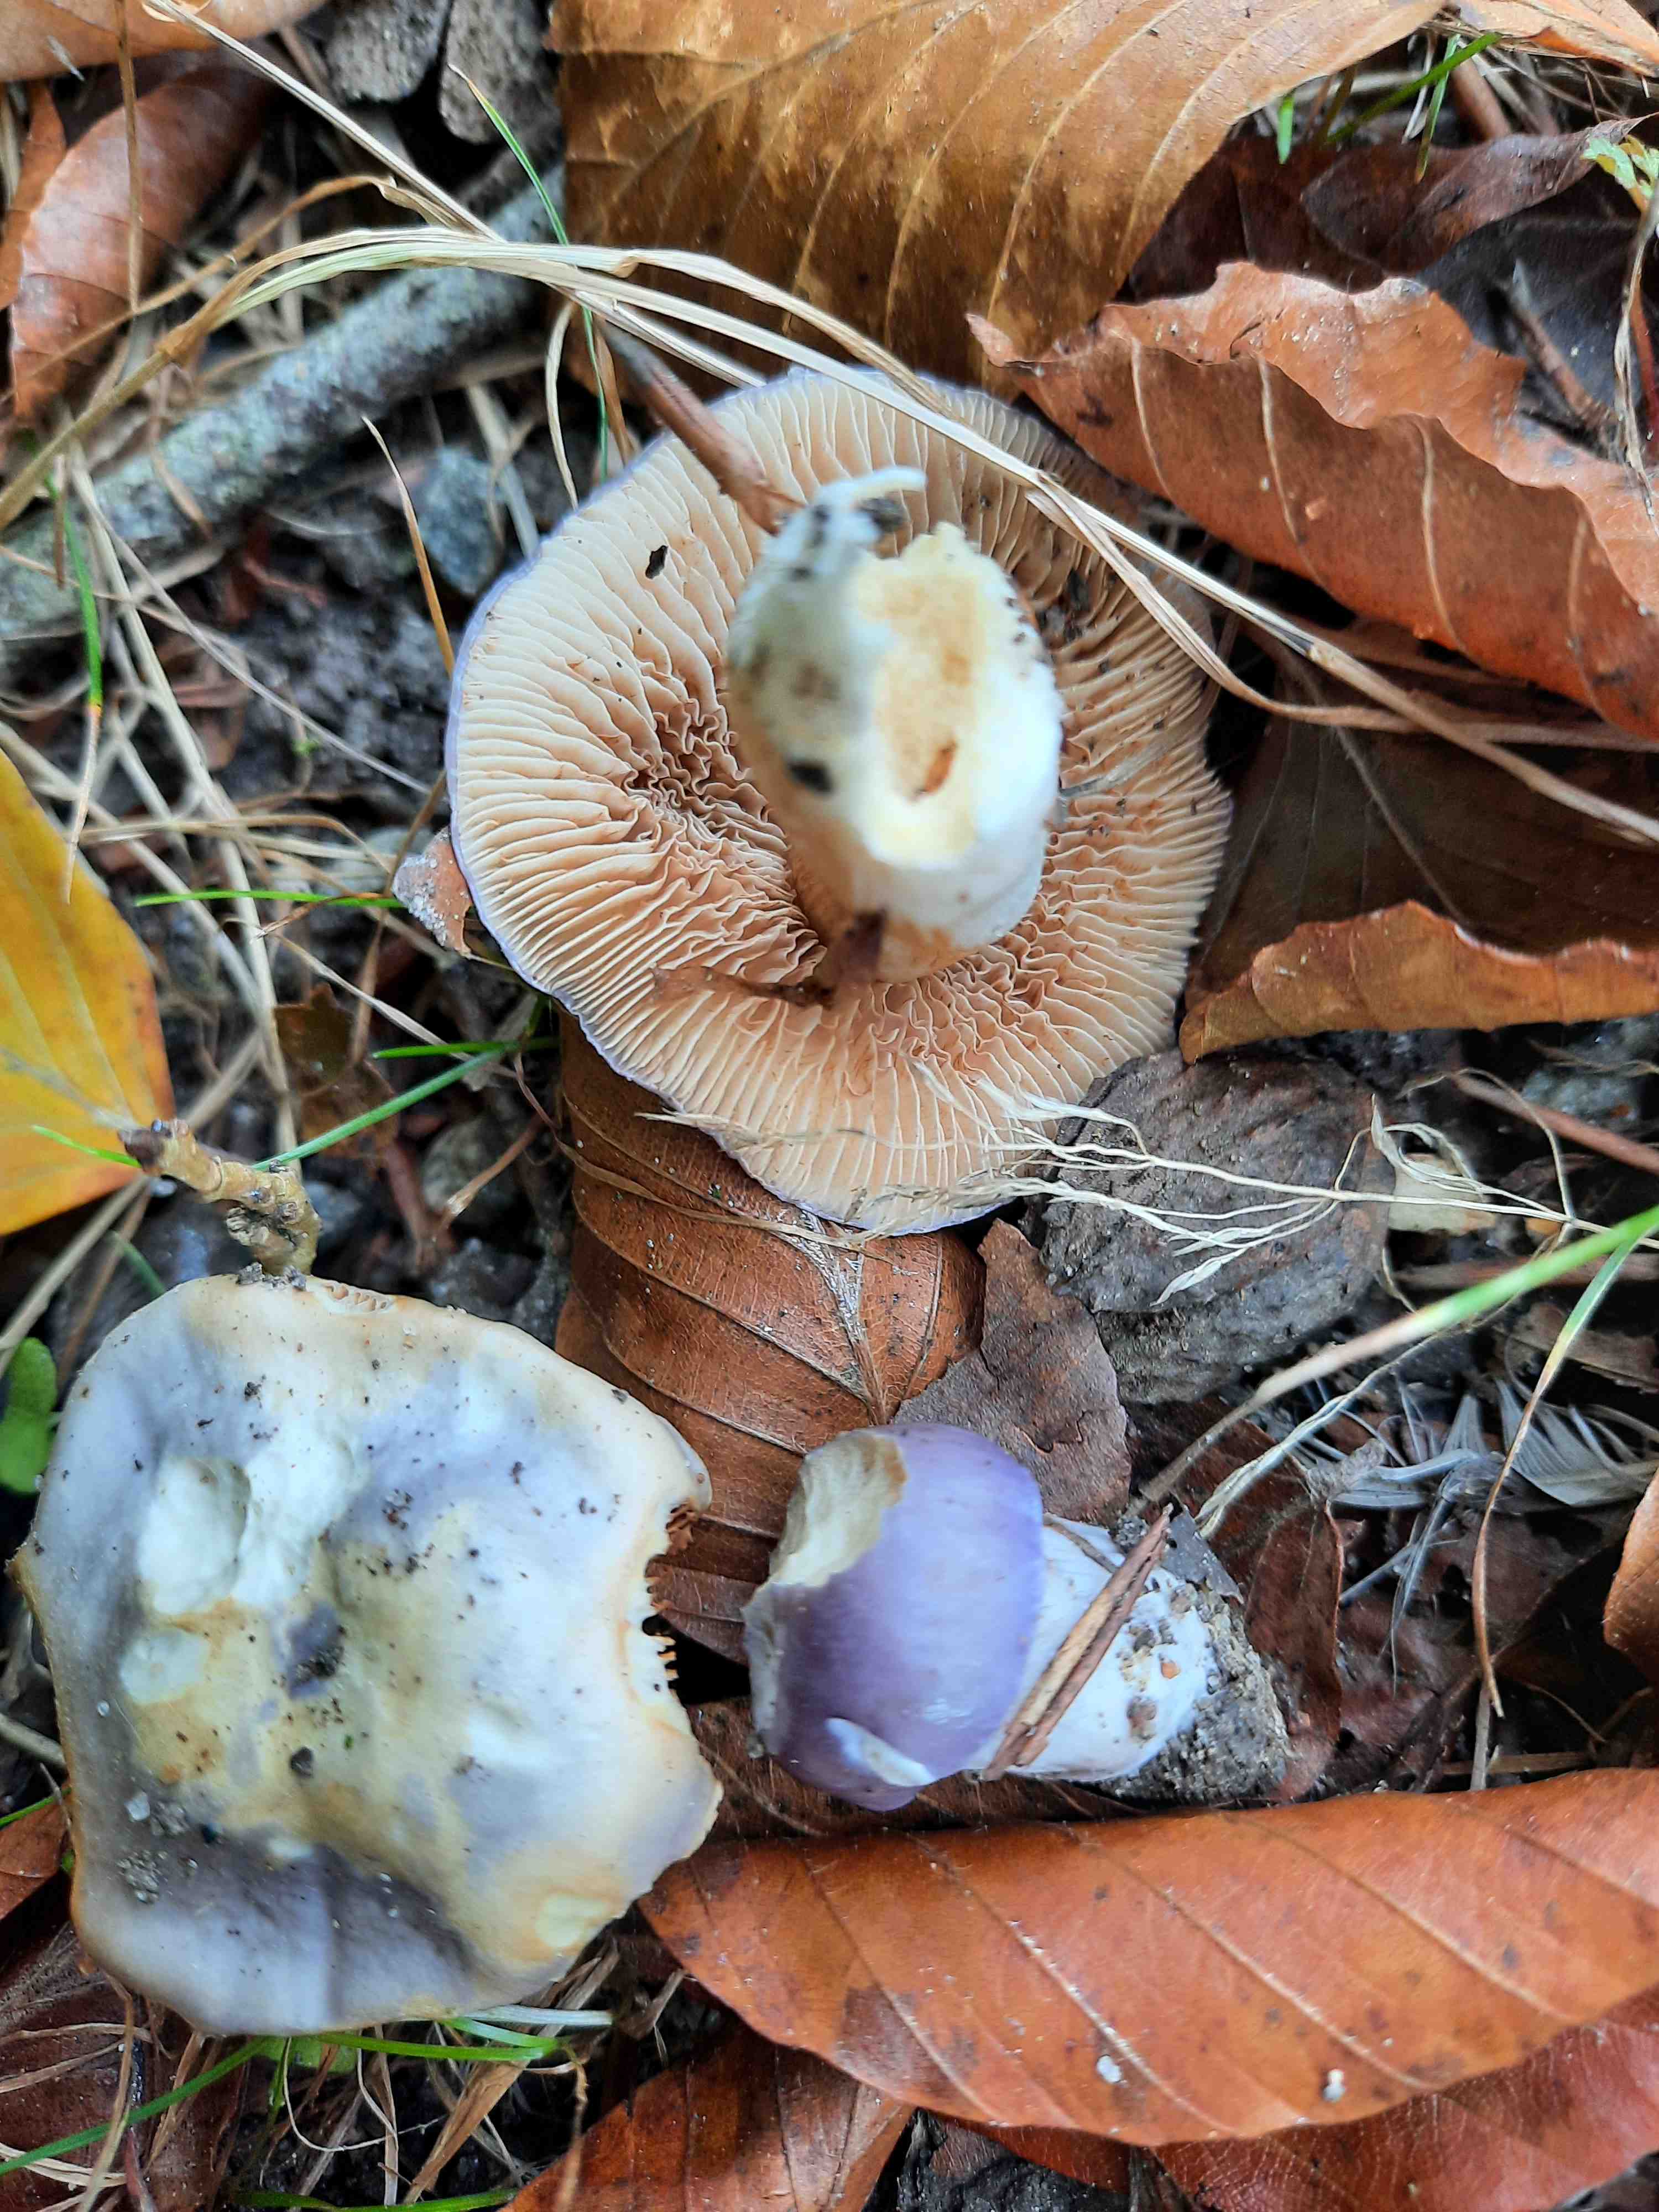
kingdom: Fungi
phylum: Basidiomycota
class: Agaricomycetes
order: Agaricales
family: Cortinariaceae
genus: Thaxterogaster
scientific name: Thaxterogaster croceocoeruleus
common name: blågullig slørhat
